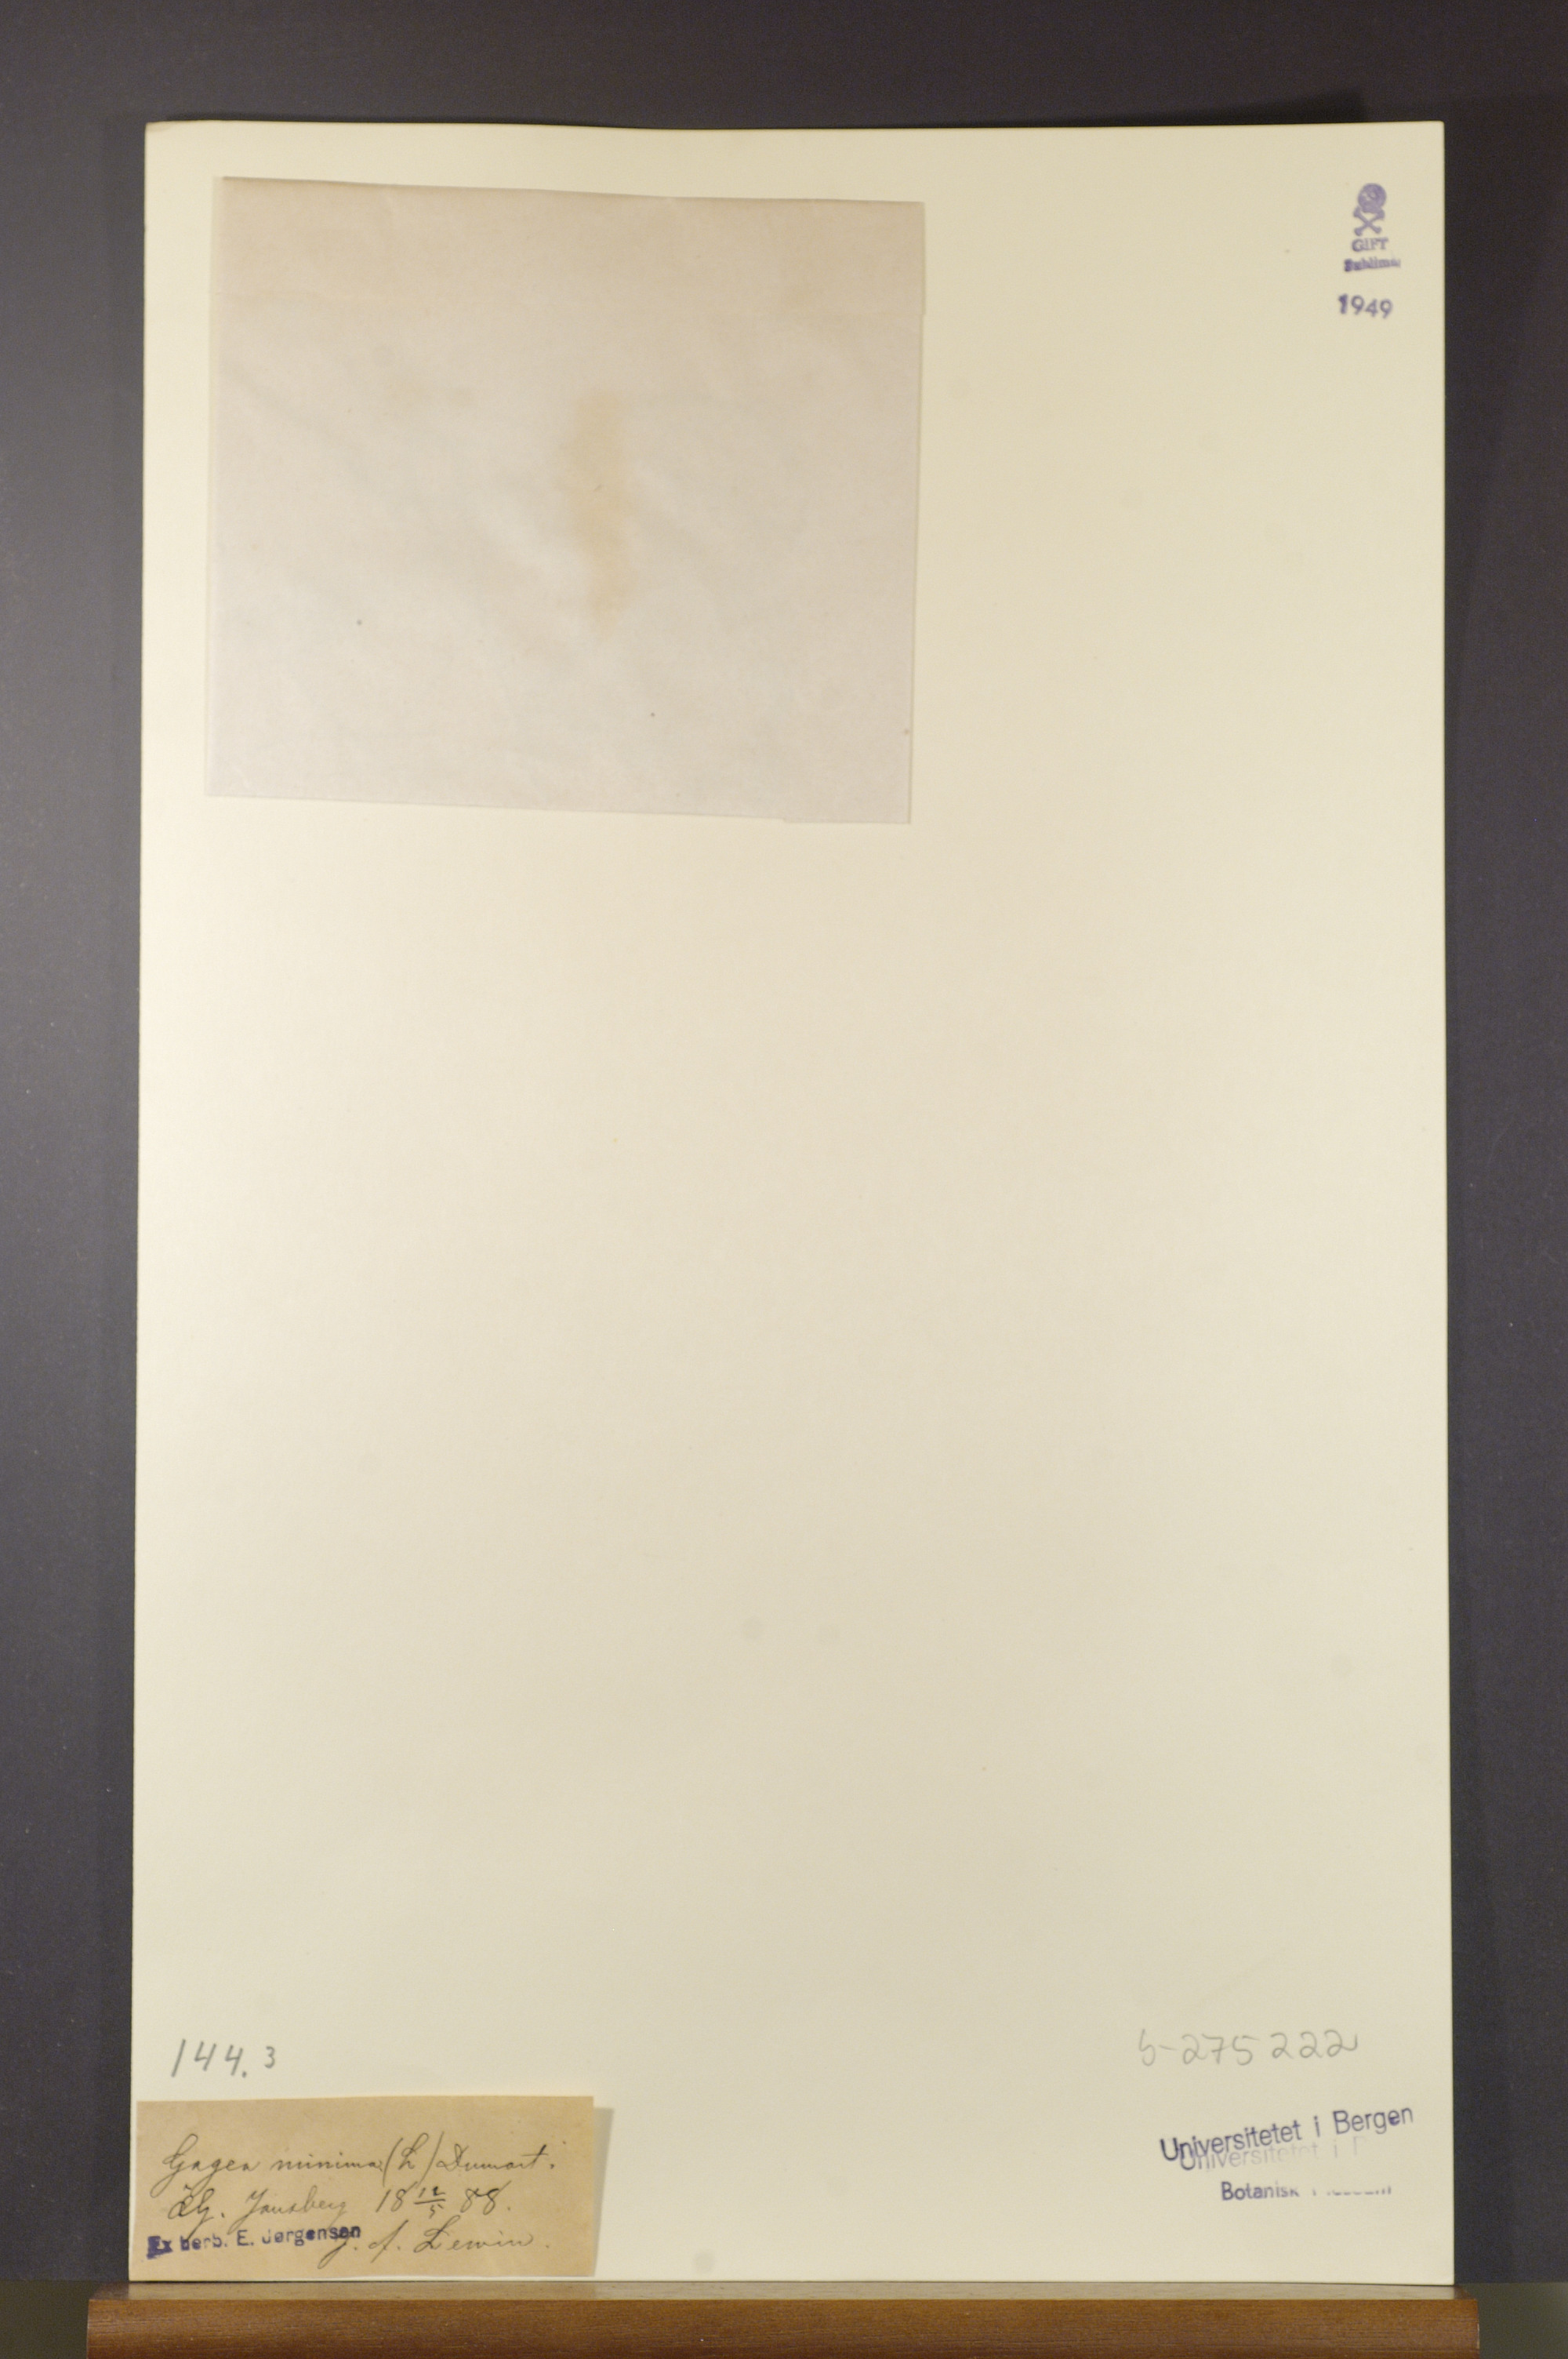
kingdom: Plantae
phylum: Tracheophyta
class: Liliopsida
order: Liliales
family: Liliaceae
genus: Gagea
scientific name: Gagea minima
